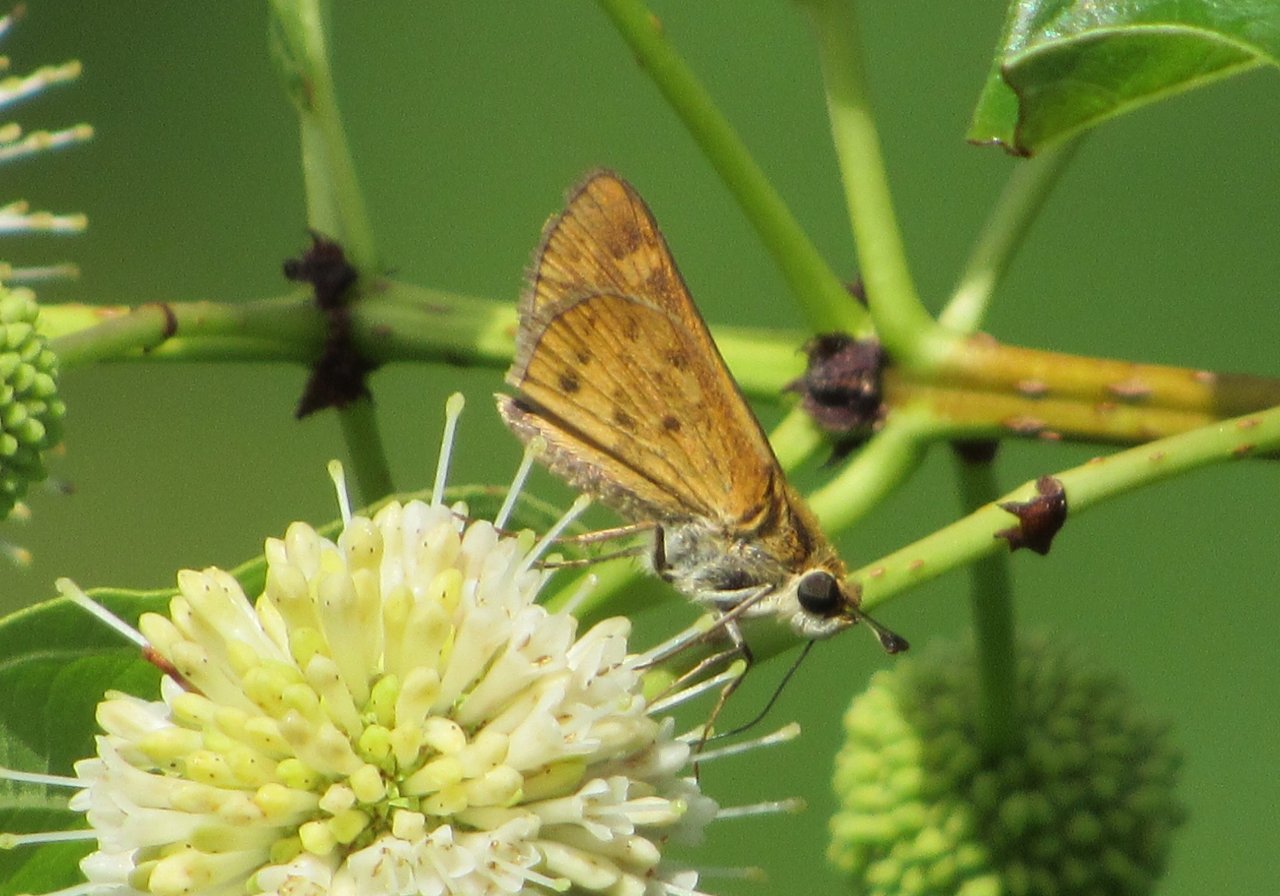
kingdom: Animalia
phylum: Arthropoda
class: Insecta
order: Lepidoptera
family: Hesperiidae
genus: Hylephila
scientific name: Hylephila phyleus
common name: Fiery Skipper
